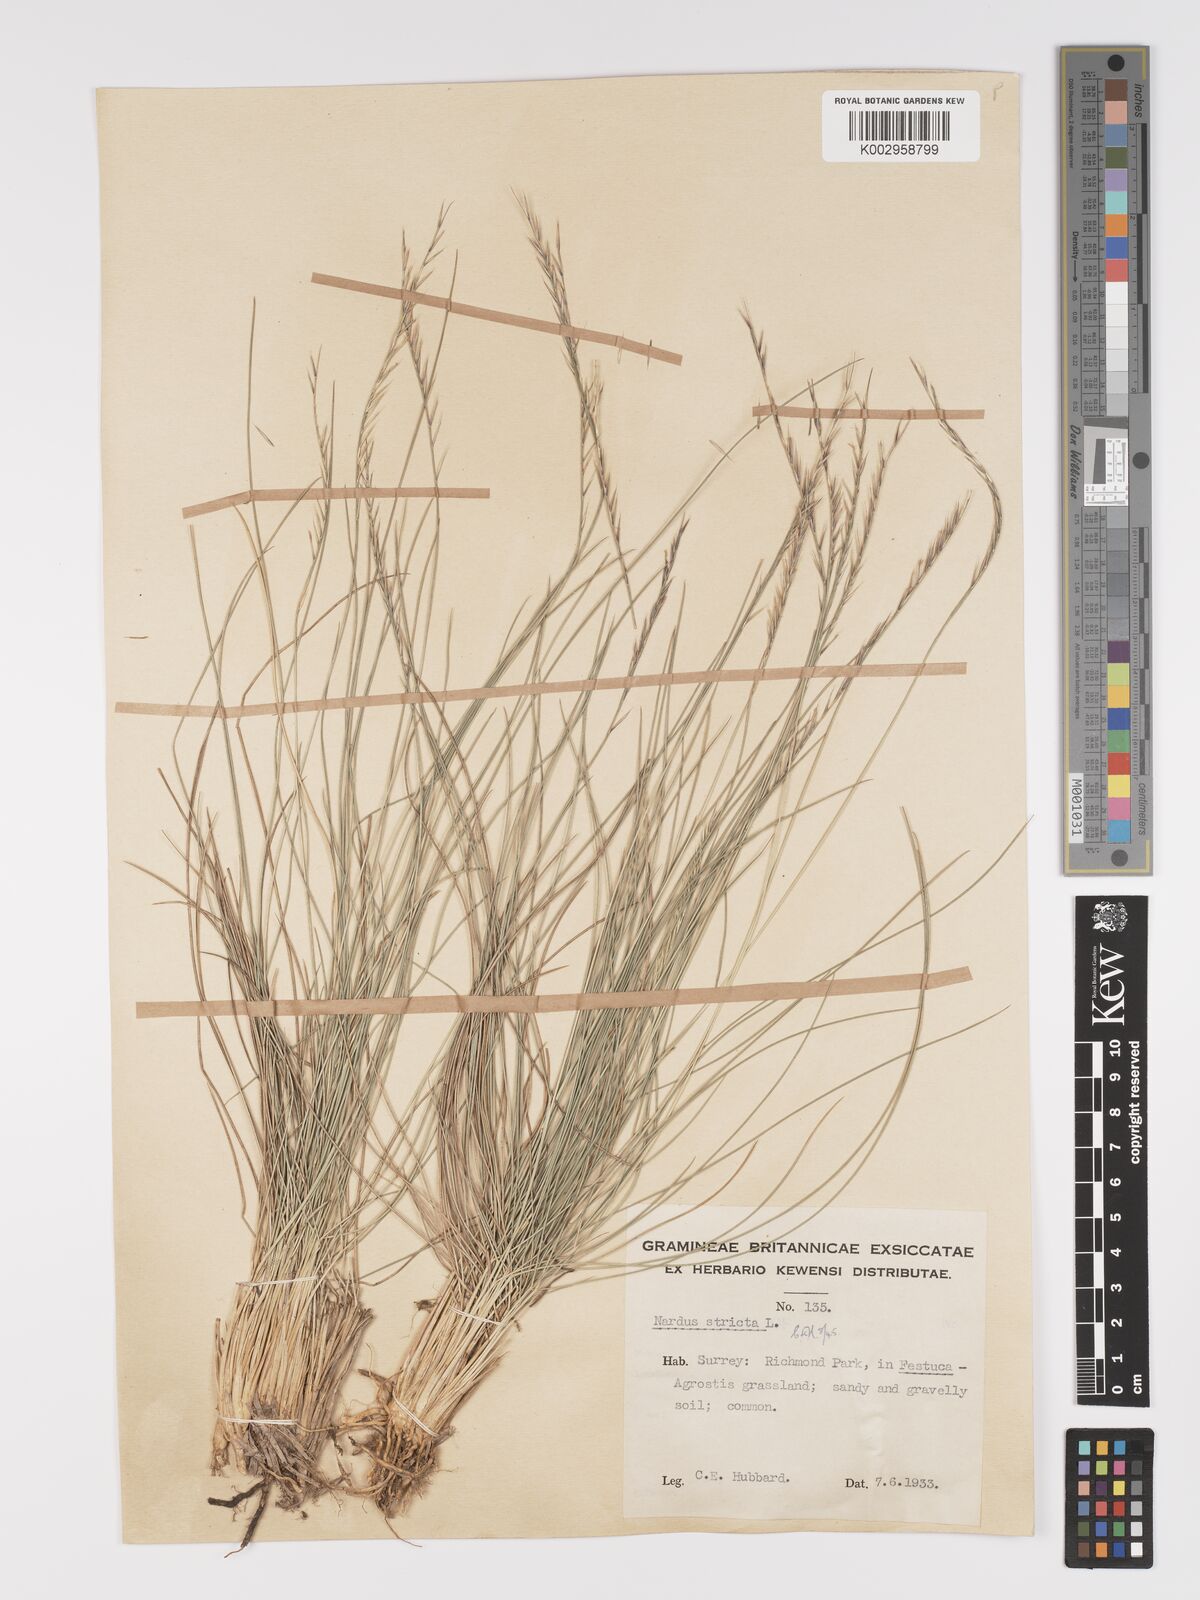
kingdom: Plantae
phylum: Tracheophyta
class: Liliopsida
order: Poales
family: Poaceae
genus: Nardus
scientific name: Nardus stricta
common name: Mat-grass
